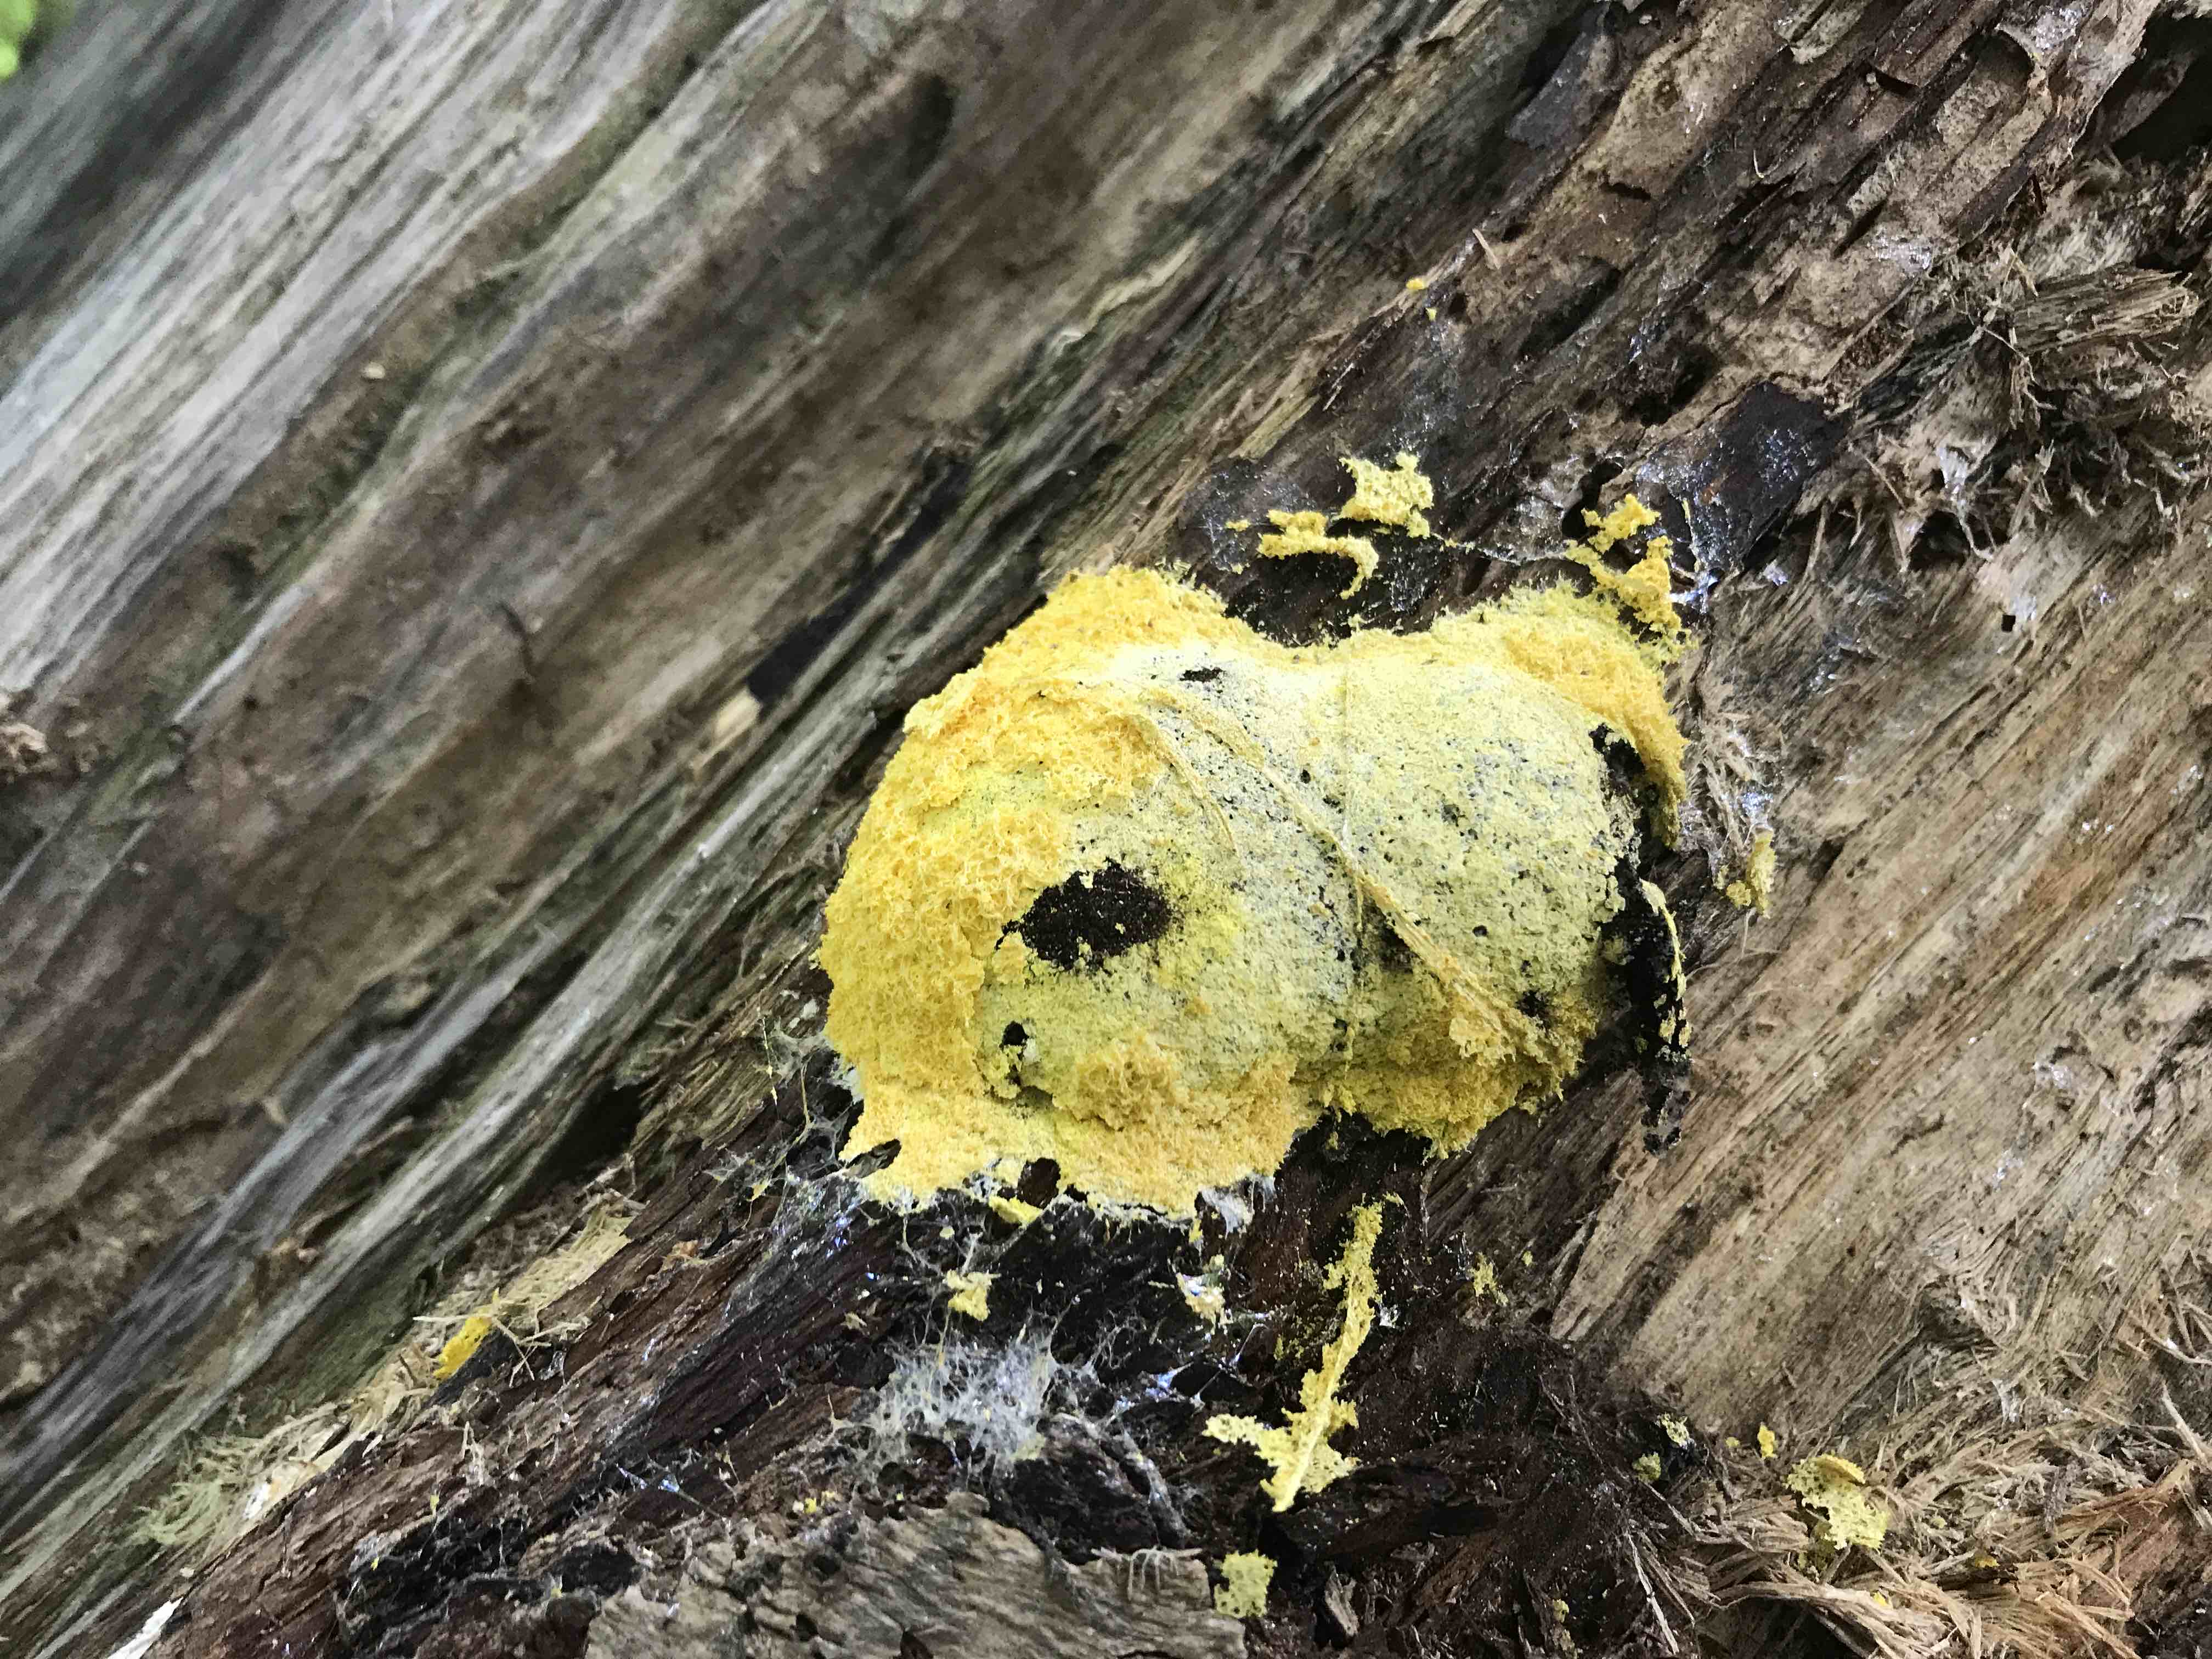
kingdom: Protozoa
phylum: Mycetozoa
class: Myxomycetes
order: Physarales
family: Physaraceae
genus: Fuligo
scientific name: Fuligo septica
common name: gul troldsmør
